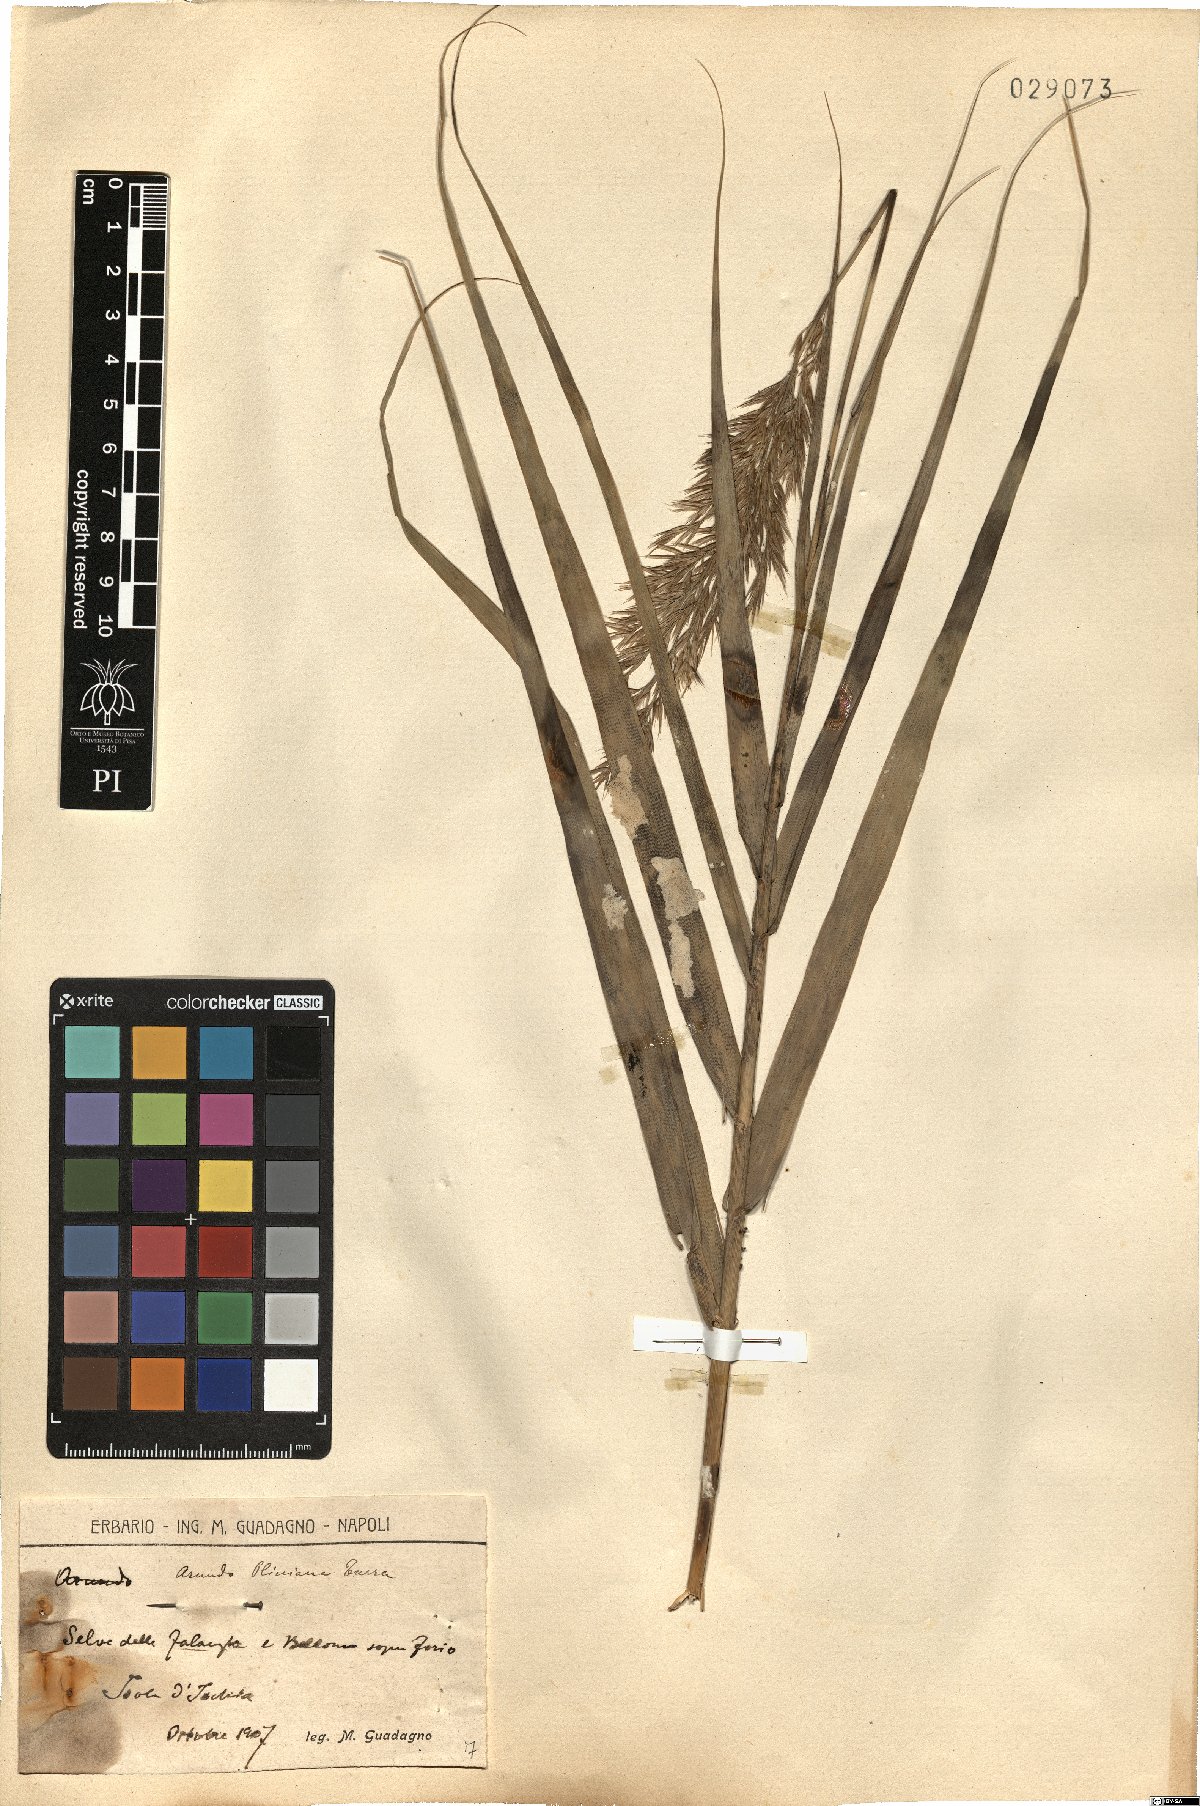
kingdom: Plantae
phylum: Tracheophyta
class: Liliopsida
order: Poales
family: Poaceae
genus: Arundo
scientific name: Arundo plinii
